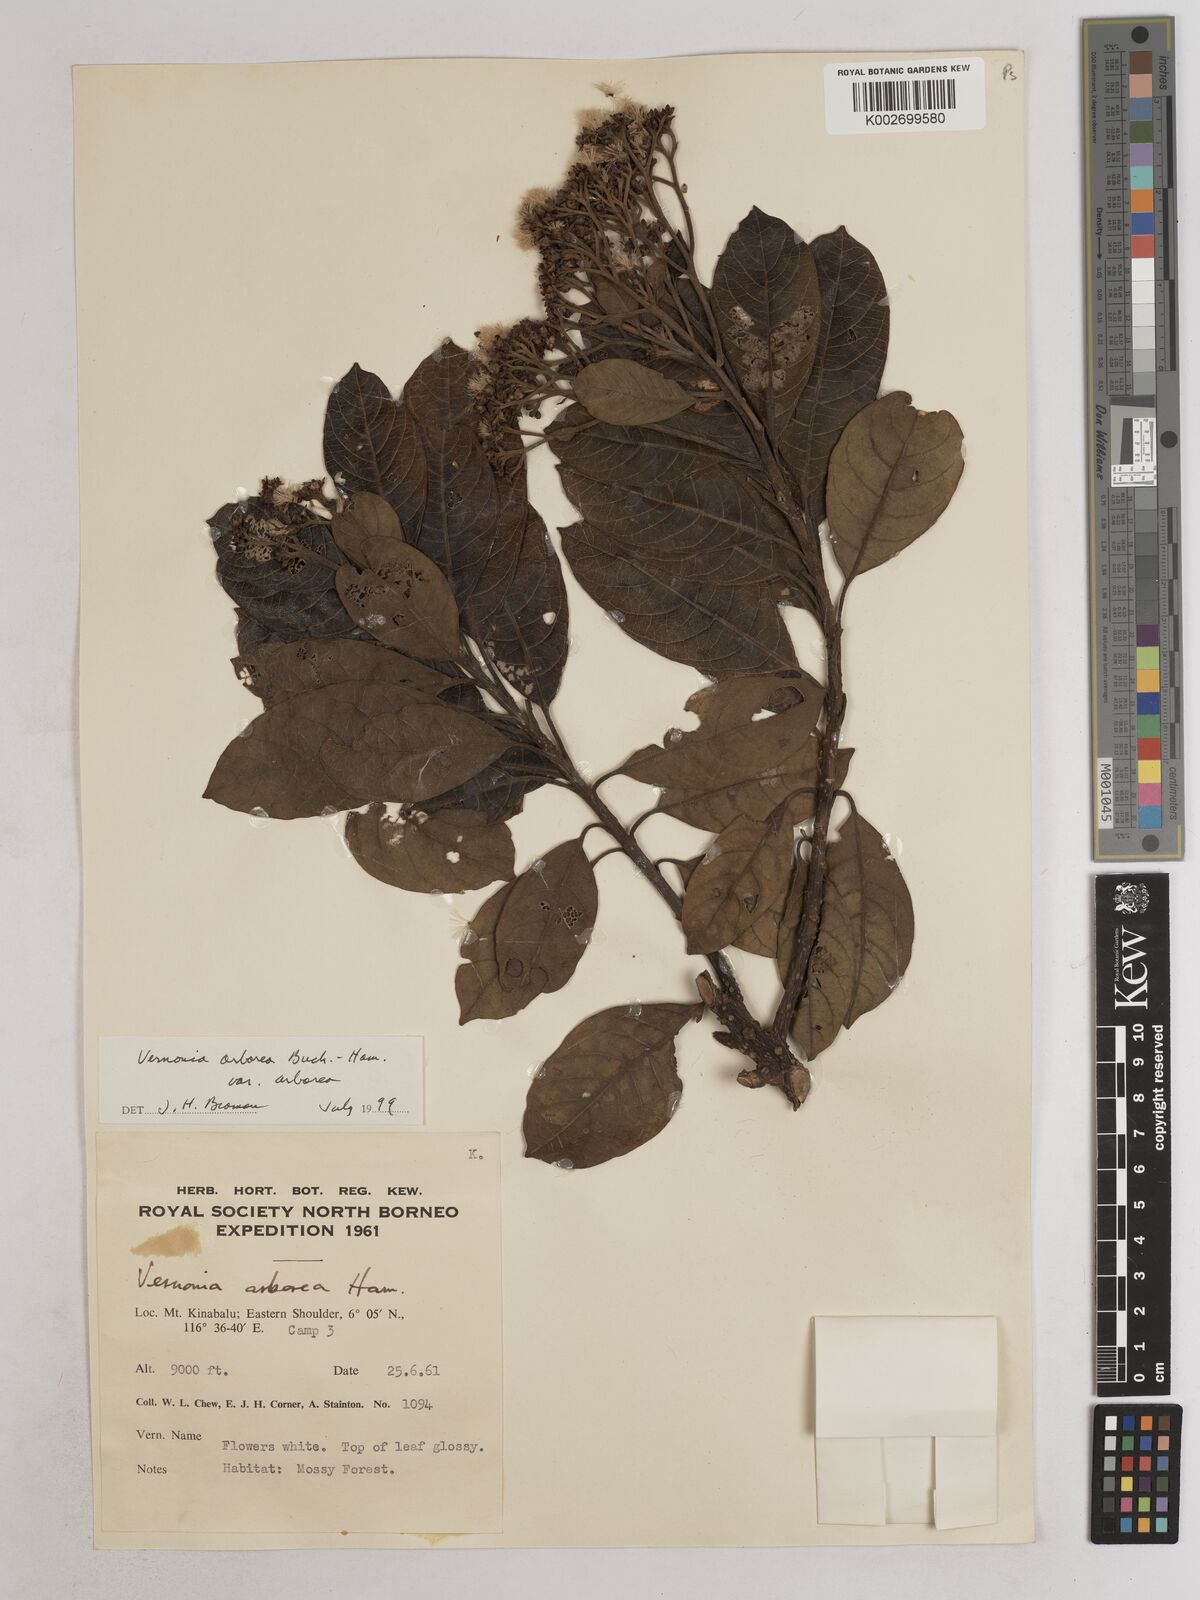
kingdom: Plantae
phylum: Tracheophyta
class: Magnoliopsida
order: Asterales
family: Asteraceae
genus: Strobocalyx
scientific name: Strobocalyx arborea
